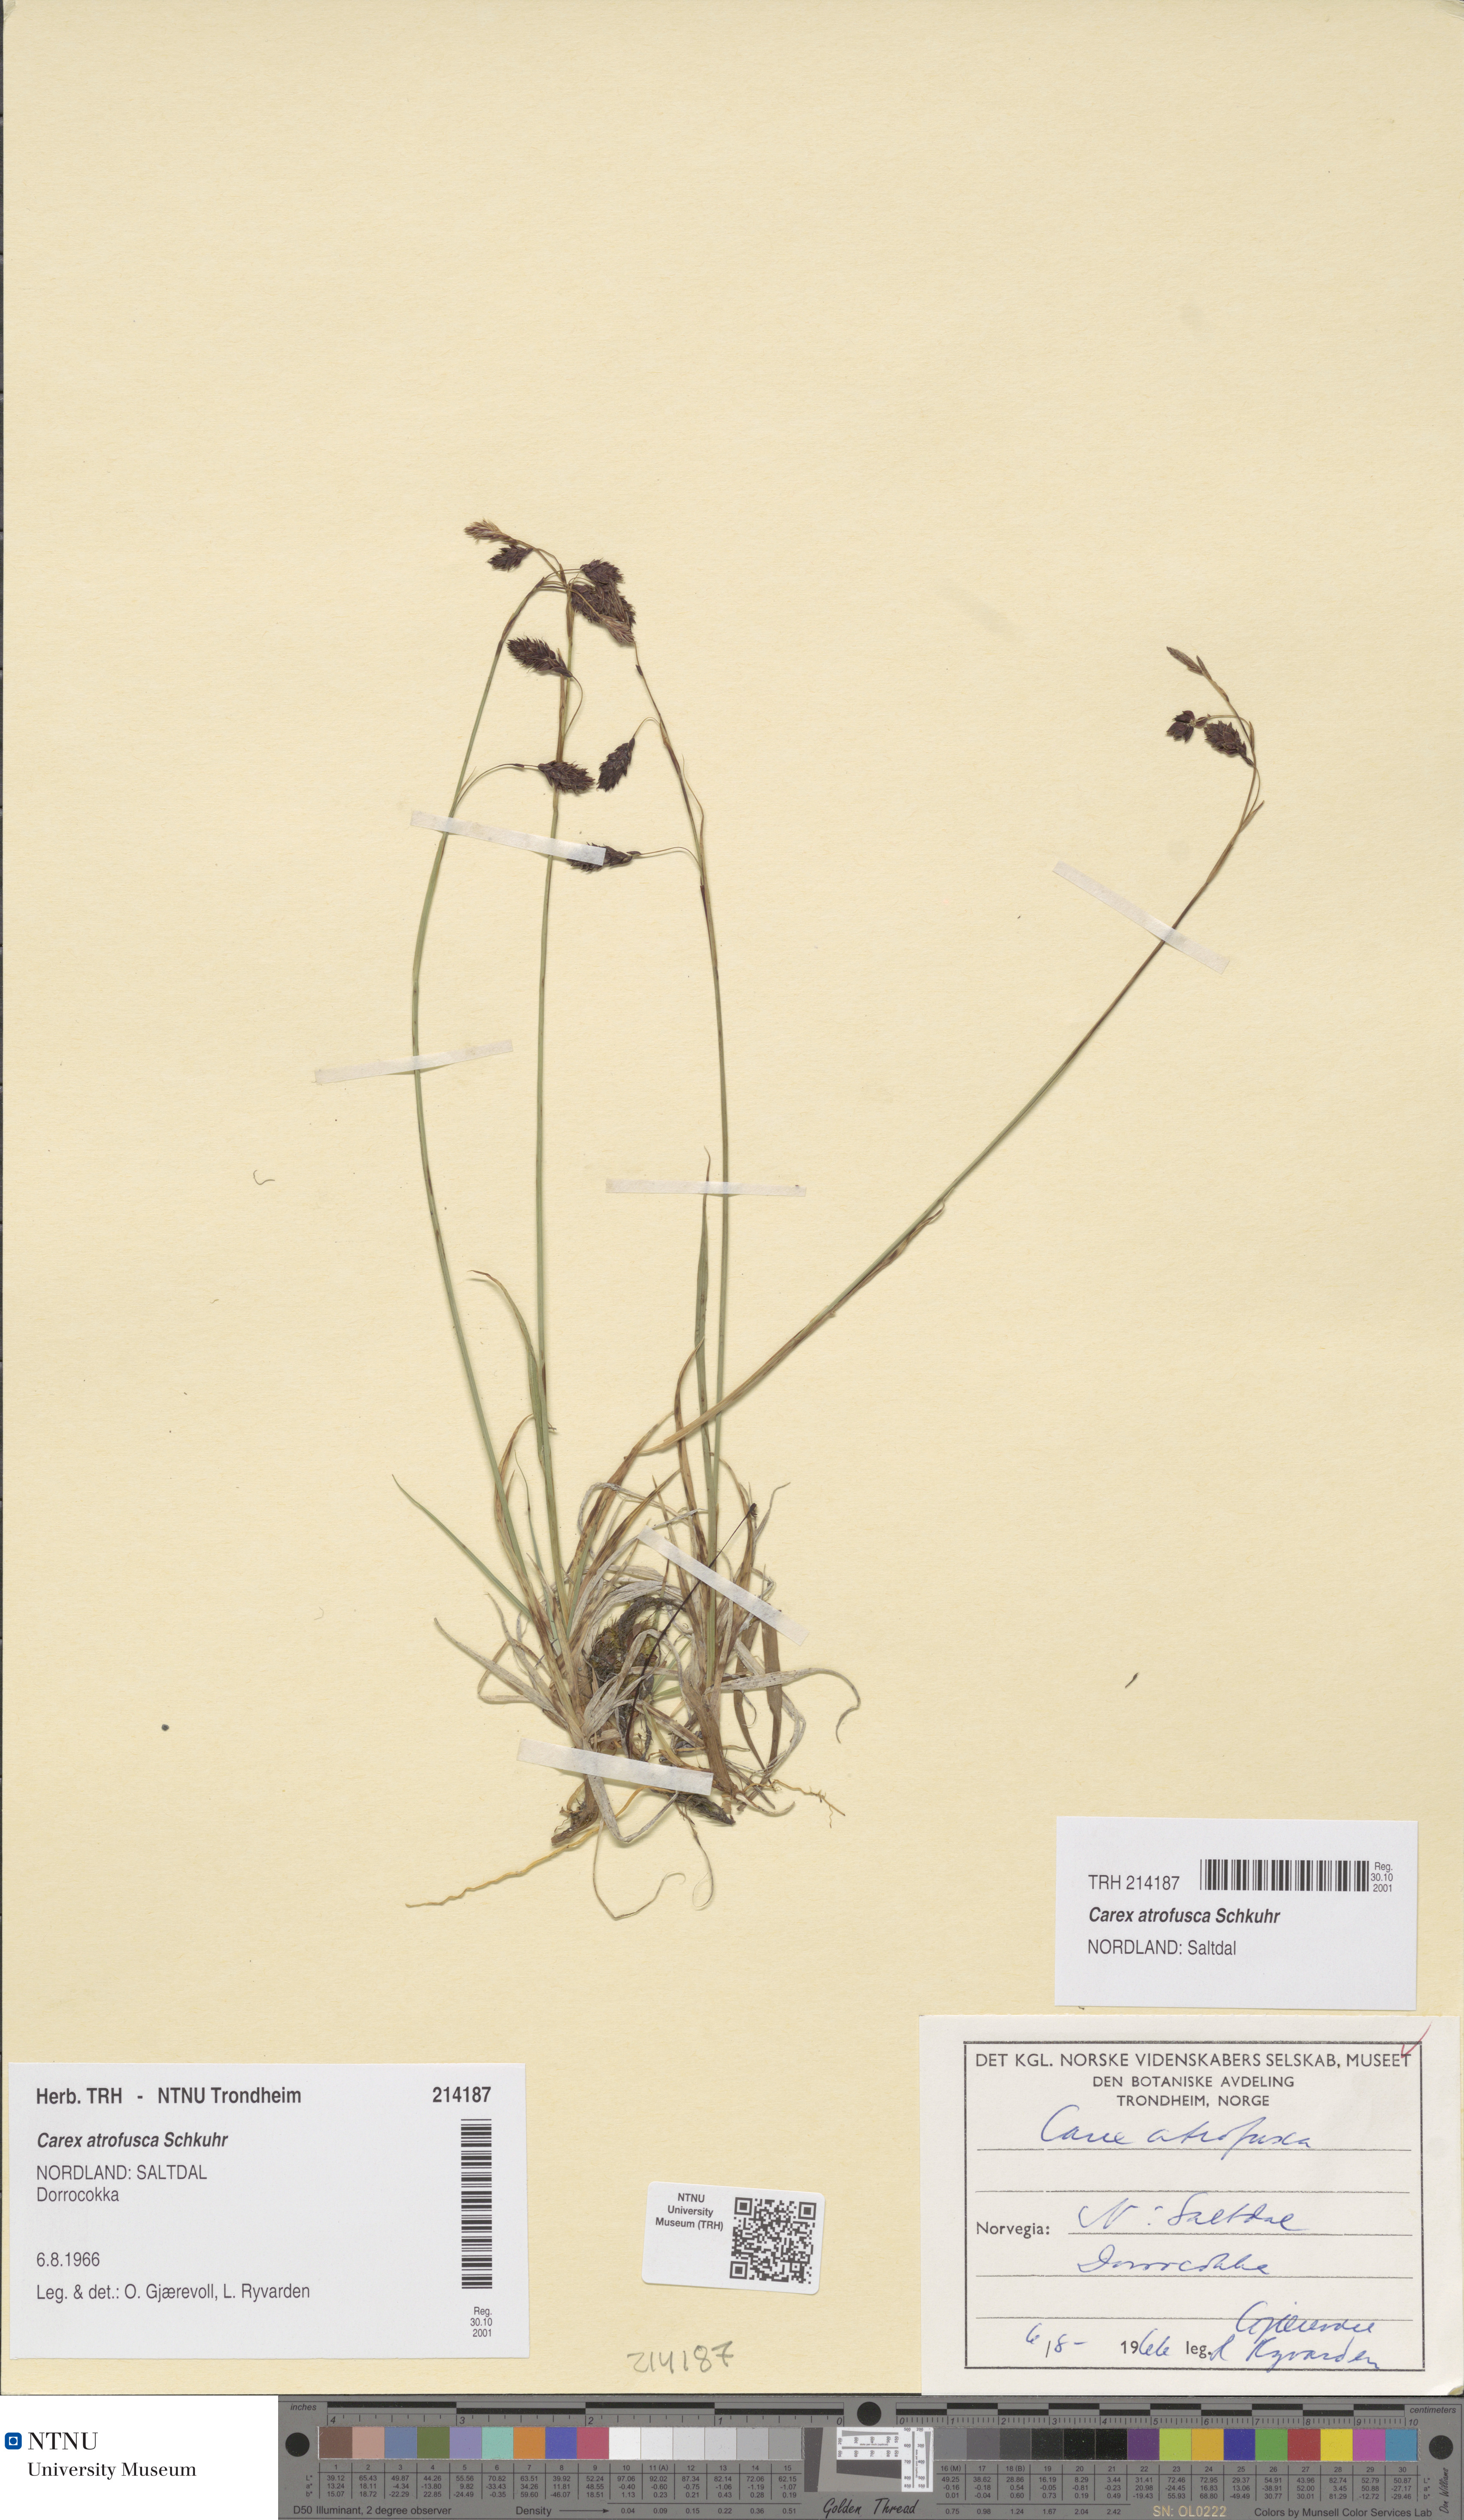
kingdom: Plantae
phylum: Tracheophyta
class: Liliopsida
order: Poales
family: Cyperaceae
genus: Carex
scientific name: Carex atrofusca
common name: Scorched alpine-sedge
